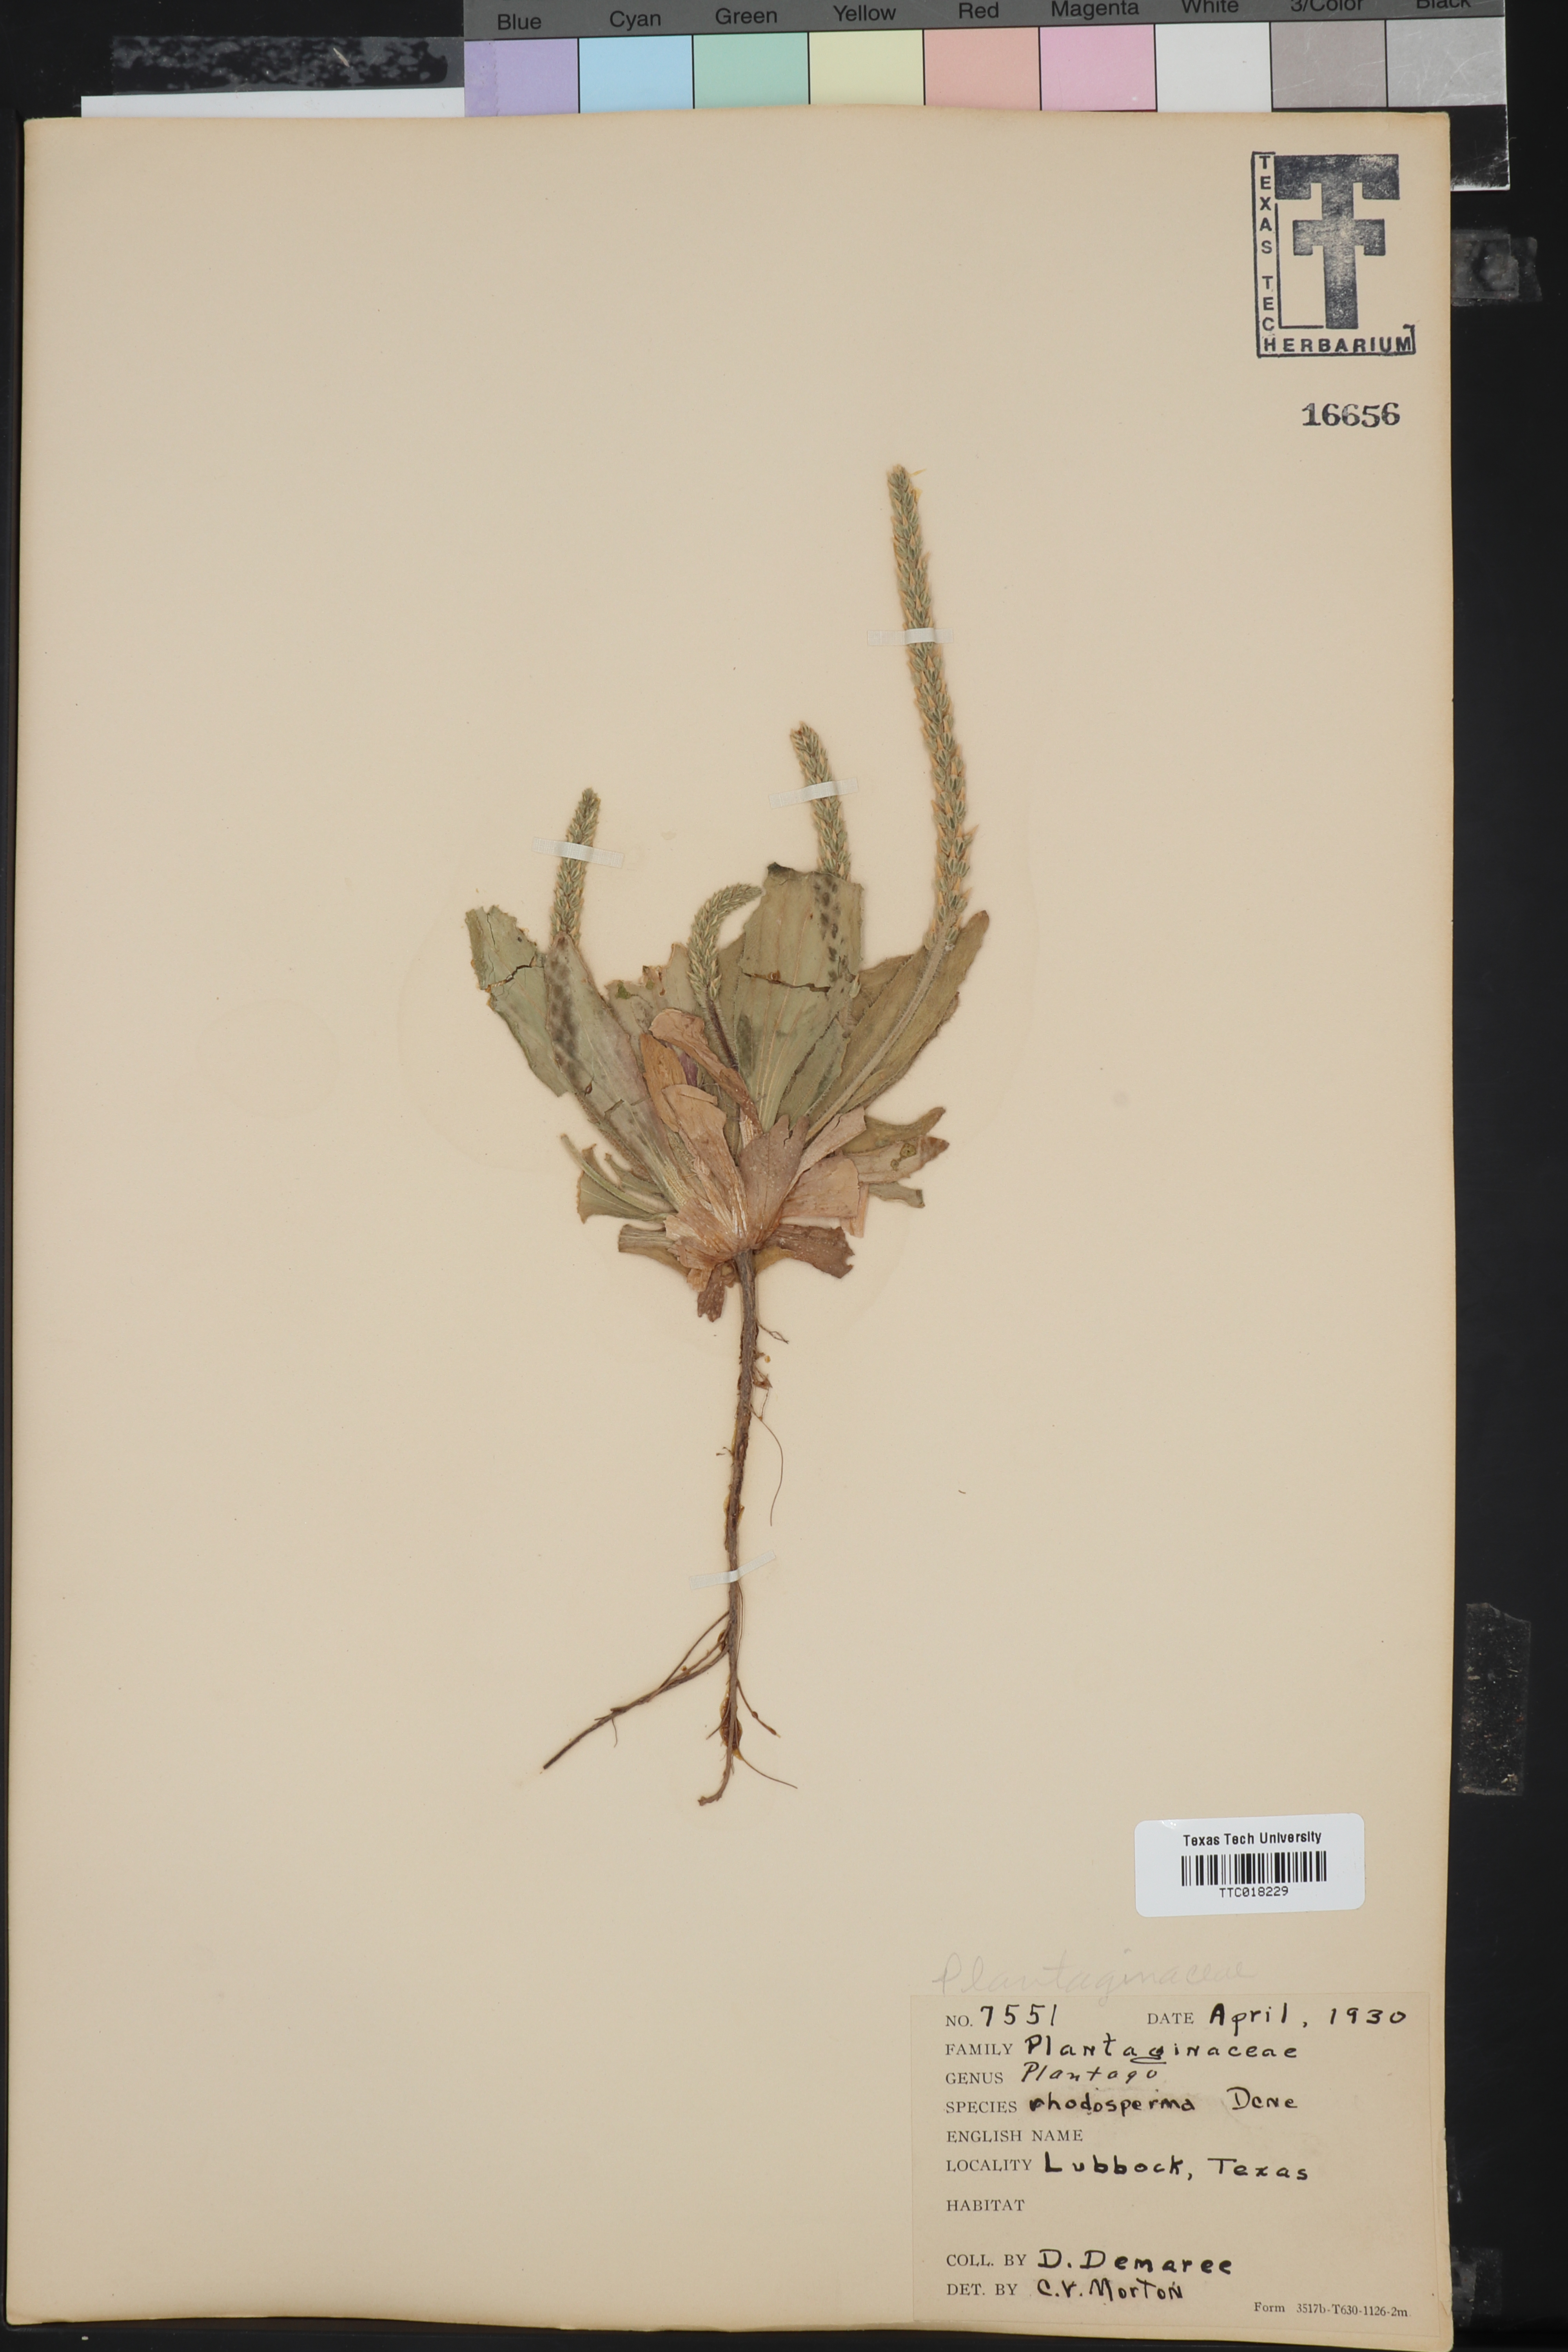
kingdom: Plantae
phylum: Tracheophyta
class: Magnoliopsida
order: Lamiales
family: Plantaginaceae
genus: Plantago
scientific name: Plantago rhodosperma
